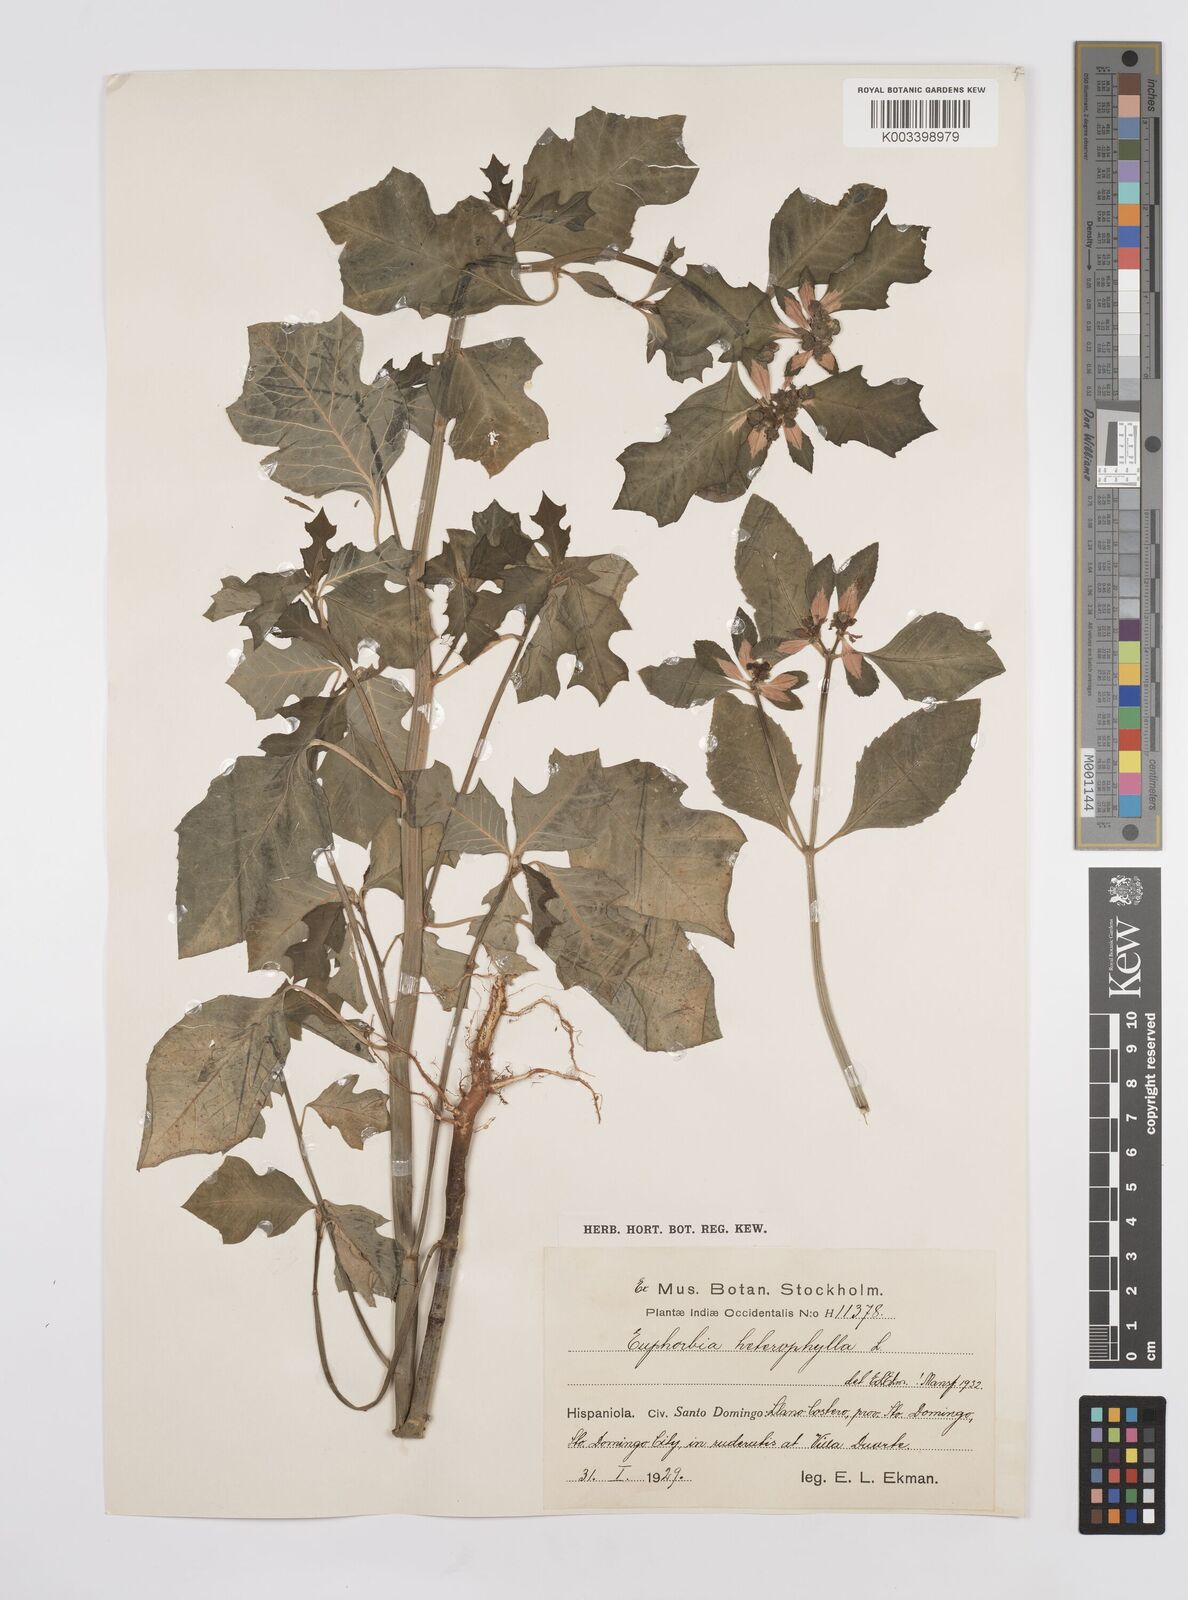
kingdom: Plantae
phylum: Tracheophyta
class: Magnoliopsida
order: Malpighiales
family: Euphorbiaceae
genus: Euphorbia
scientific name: Euphorbia heterophylla
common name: Mexican fireplant
